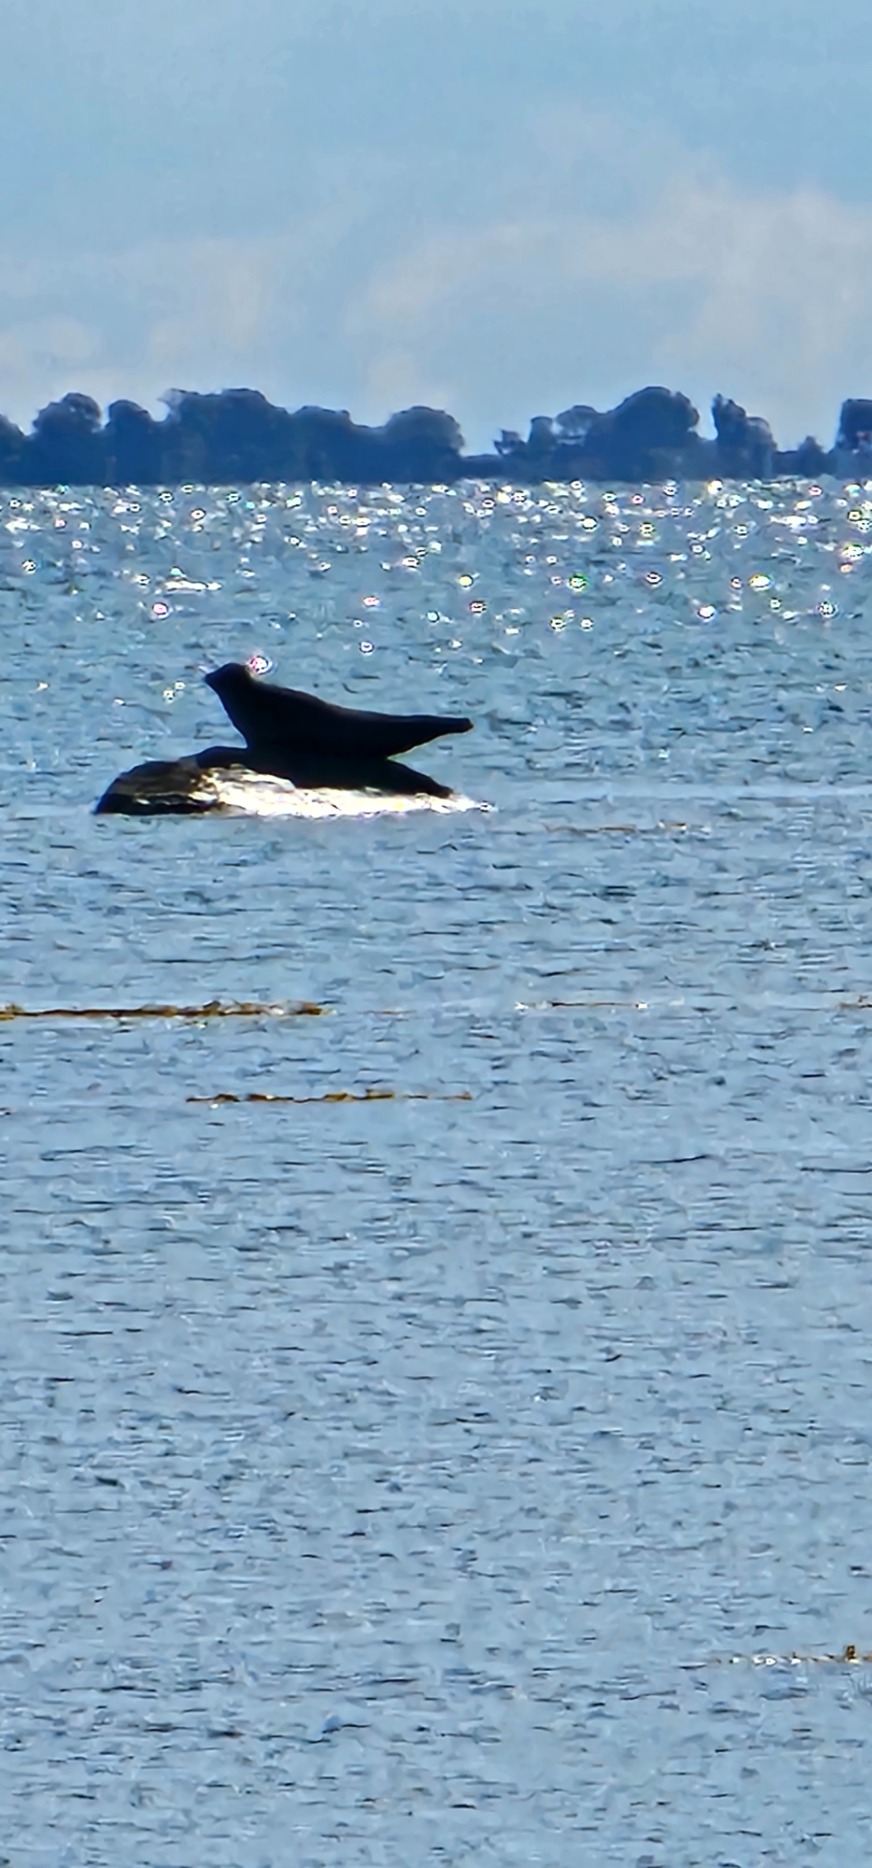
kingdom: Animalia
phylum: Chordata
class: Mammalia
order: Carnivora
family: Phocidae
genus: Phoca
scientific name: Phoca vitulina
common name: Spættet sæl
